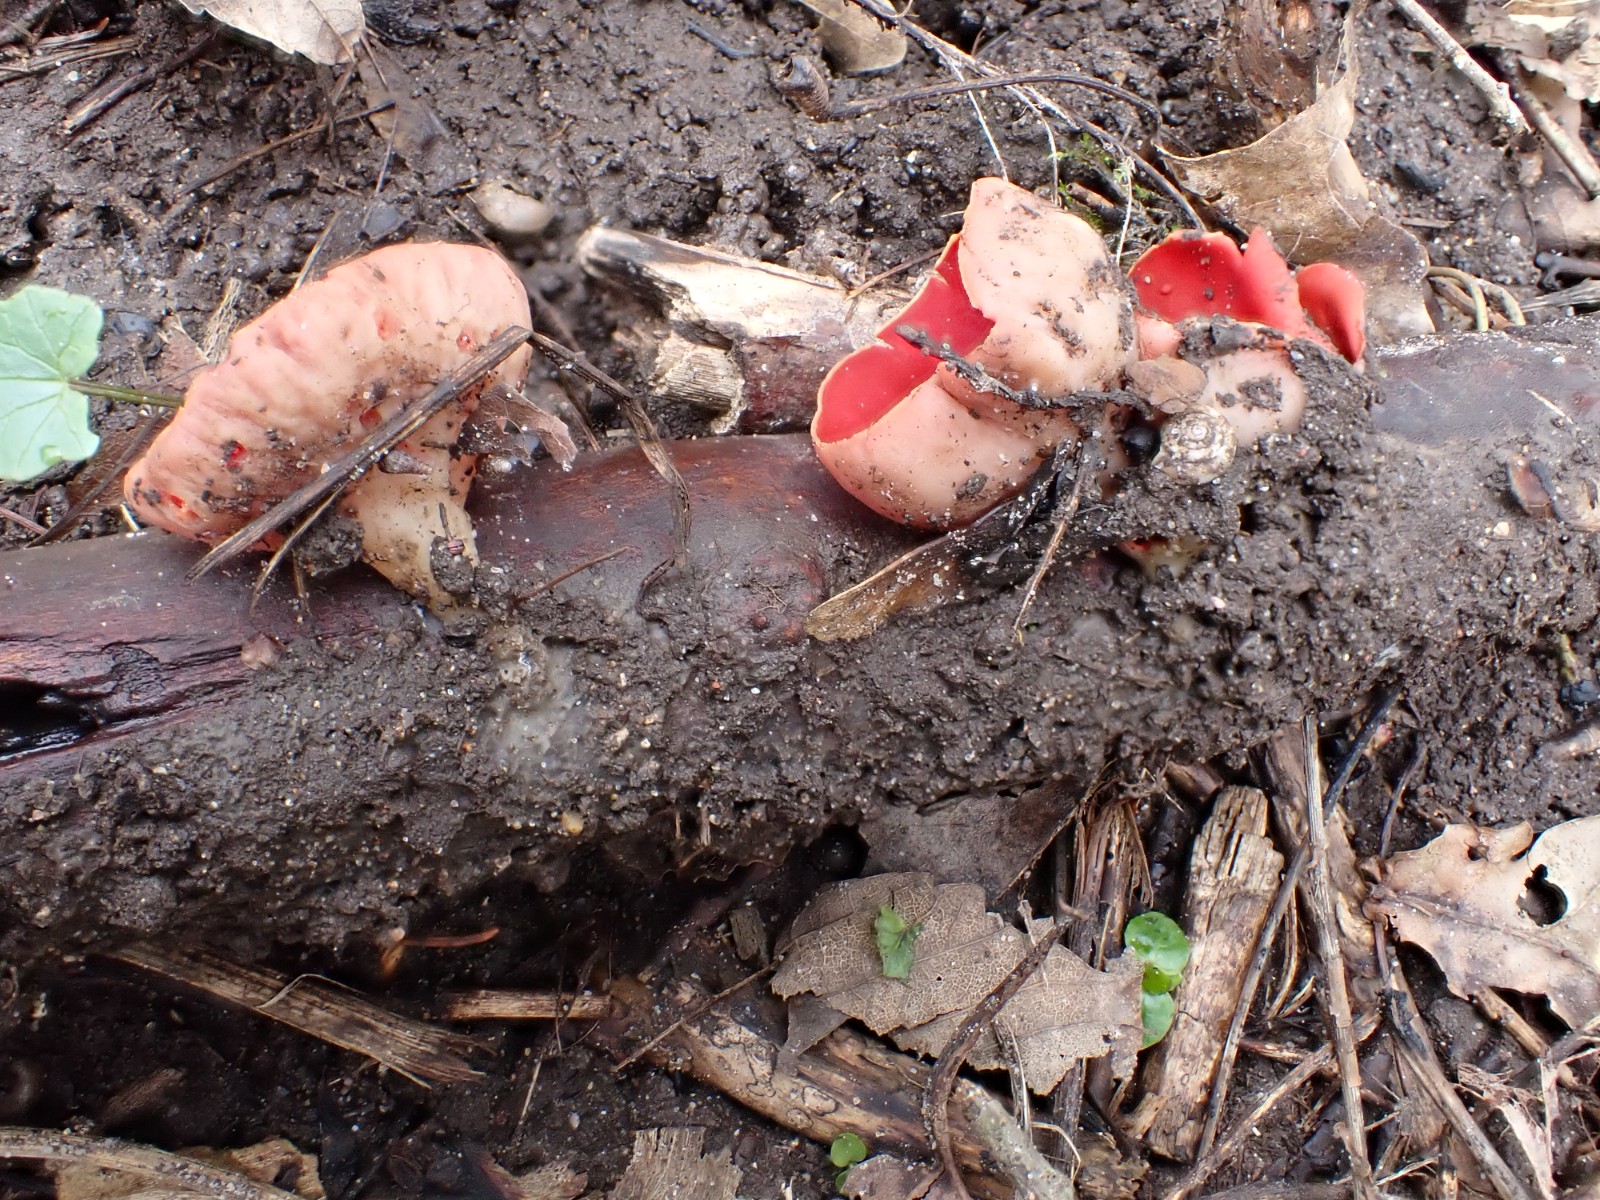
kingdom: Fungi
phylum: Ascomycota
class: Pezizomycetes
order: Pezizales
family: Sarcoscyphaceae
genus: Sarcoscypha
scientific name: Sarcoscypha austriaca
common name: krølhåret pragtbæger
